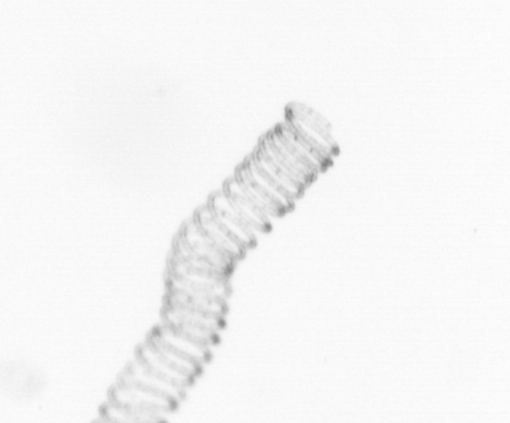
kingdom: Chromista
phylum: Ochrophyta
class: Bacillariophyceae
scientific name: Bacillariophyceae
